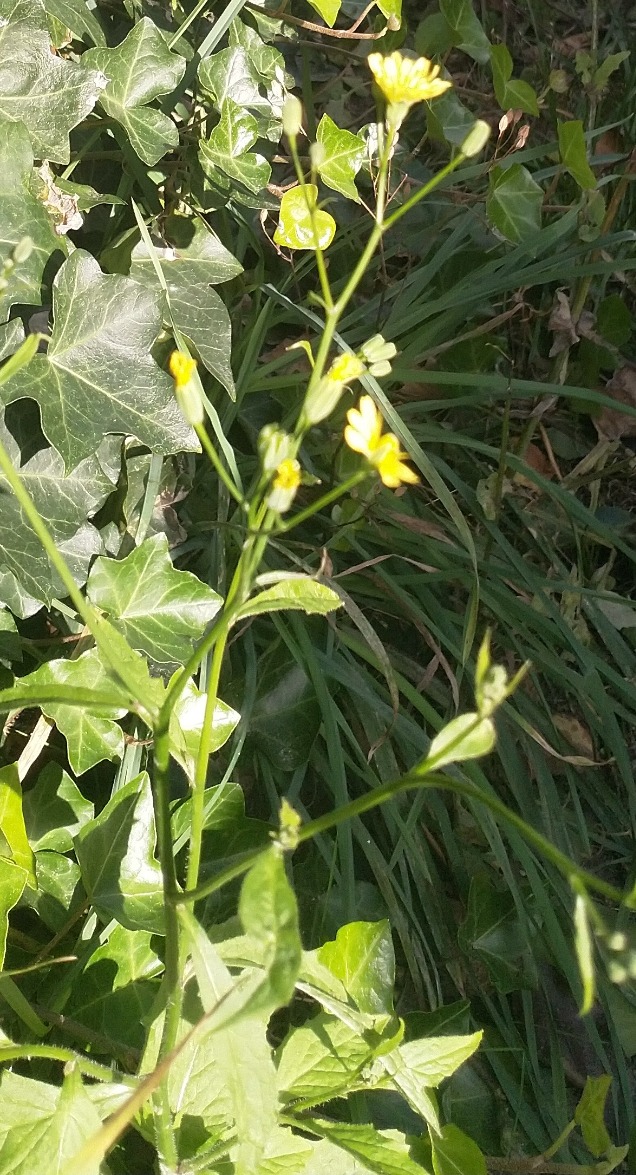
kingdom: Plantae
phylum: Tracheophyta
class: Magnoliopsida
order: Asterales
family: Asteraceae
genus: Lapsana
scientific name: Lapsana communis
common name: Haremad
